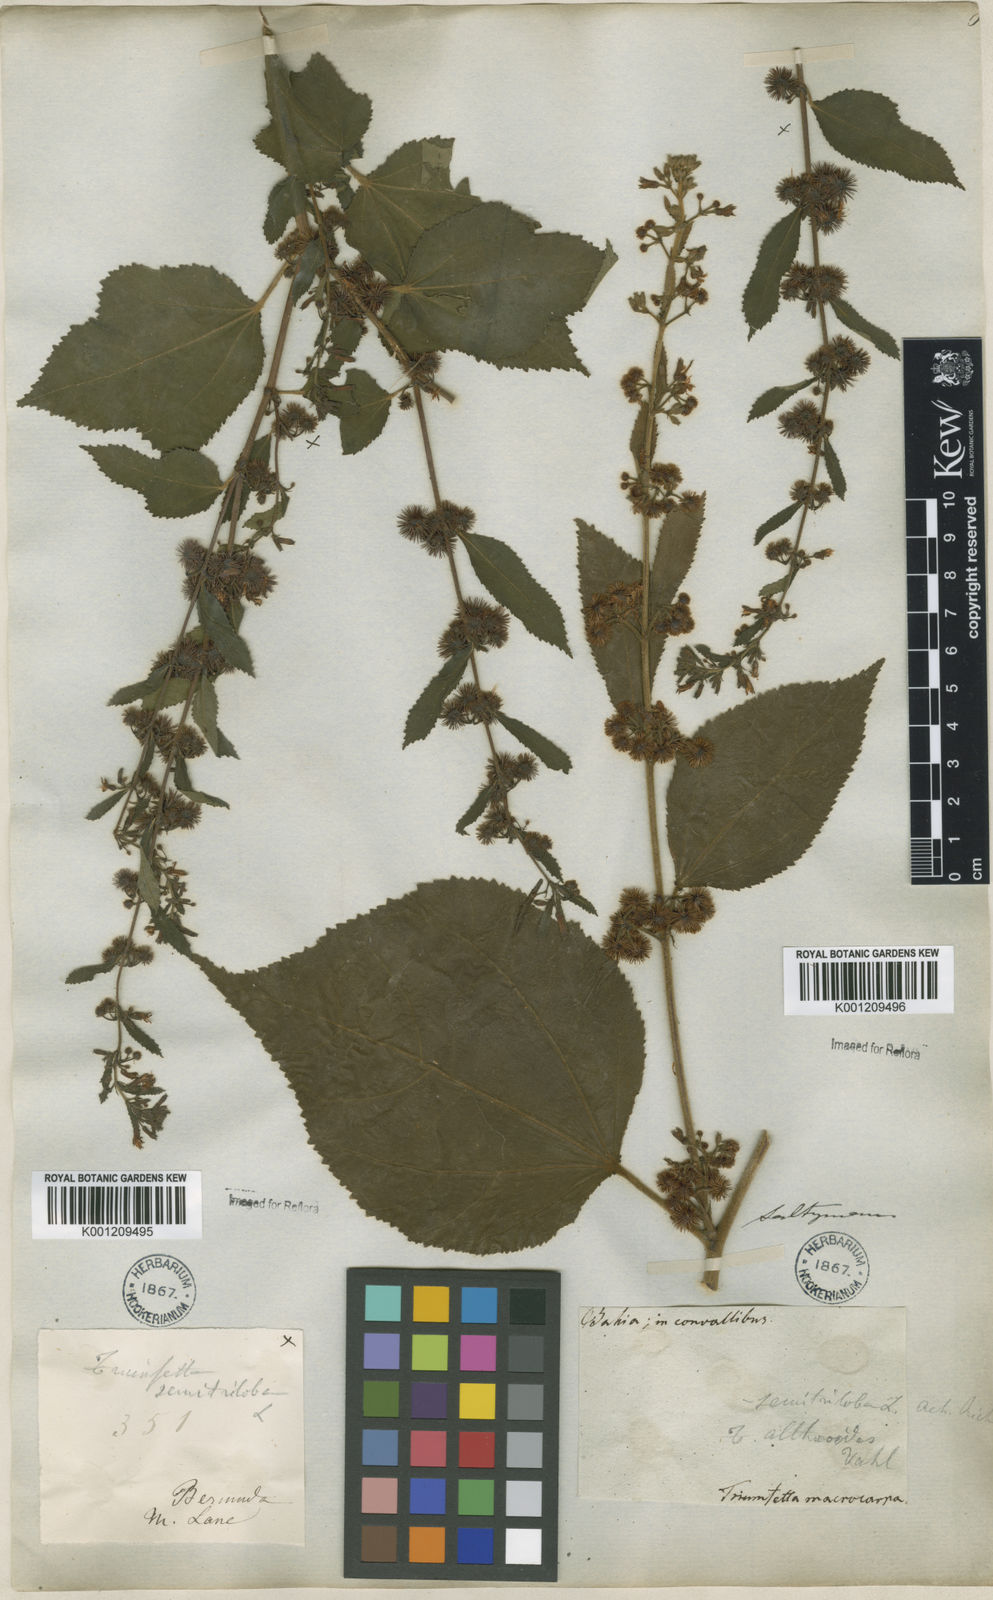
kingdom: Plantae
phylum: Tracheophyta
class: Magnoliopsida
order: Malvales
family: Malvaceae
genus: Triumfetta
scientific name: Triumfetta althaeoides
